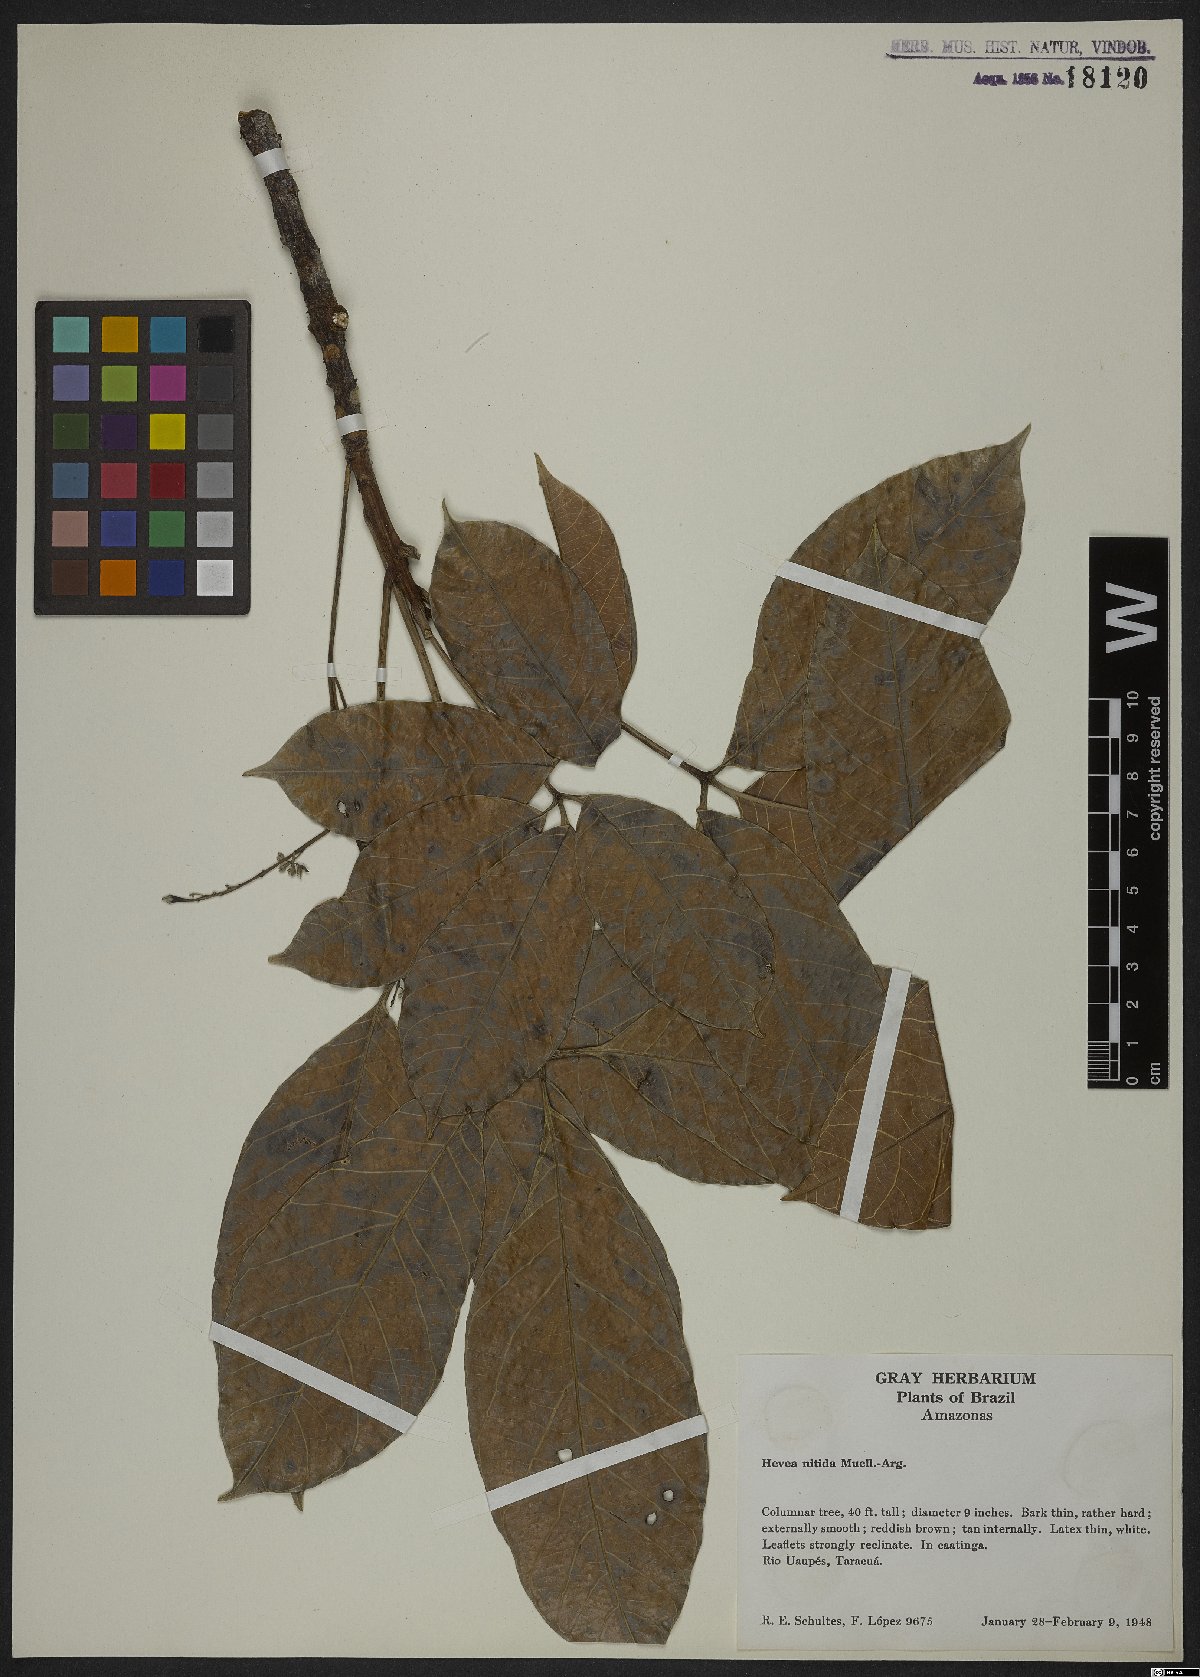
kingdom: Plantae
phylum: Tracheophyta
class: Magnoliopsida
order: Malpighiales
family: Euphorbiaceae
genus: Hevea
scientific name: Hevea nitida
